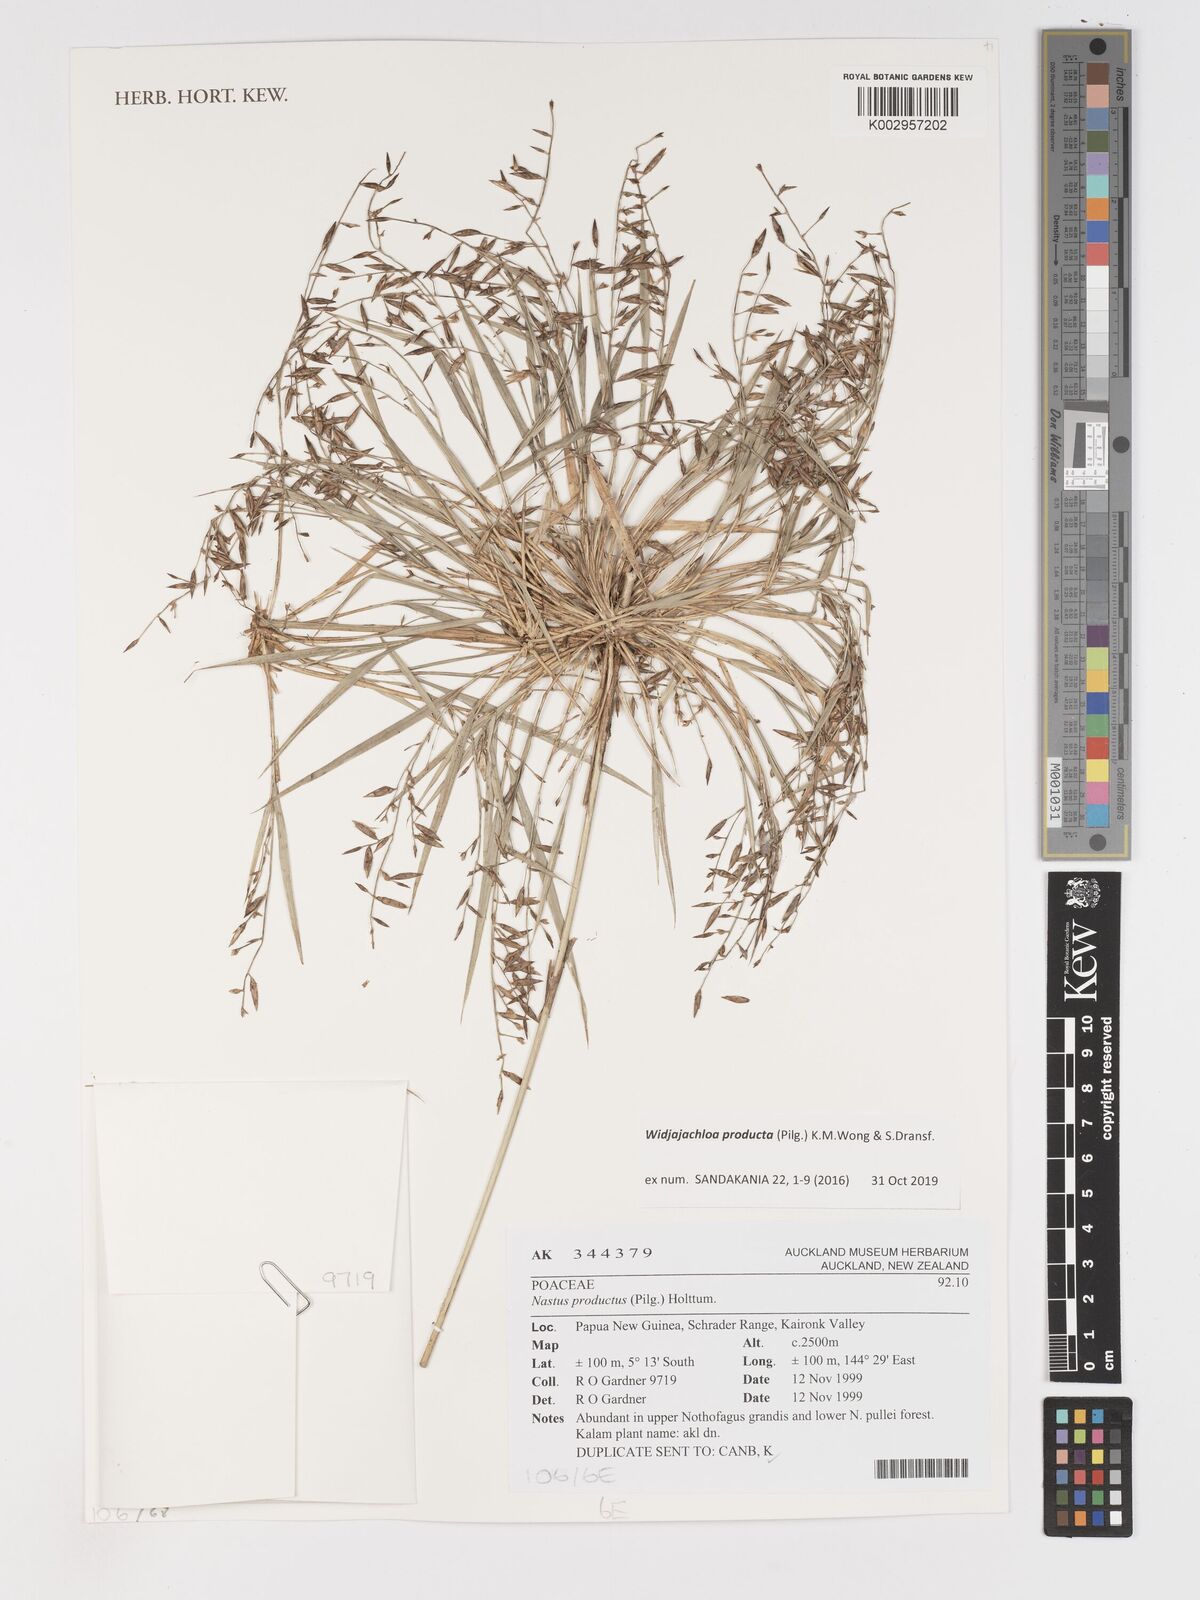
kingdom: Plantae
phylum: Tracheophyta
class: Liliopsida
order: Poales
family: Poaceae
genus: Widjajachloa
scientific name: Widjajachloa producta
